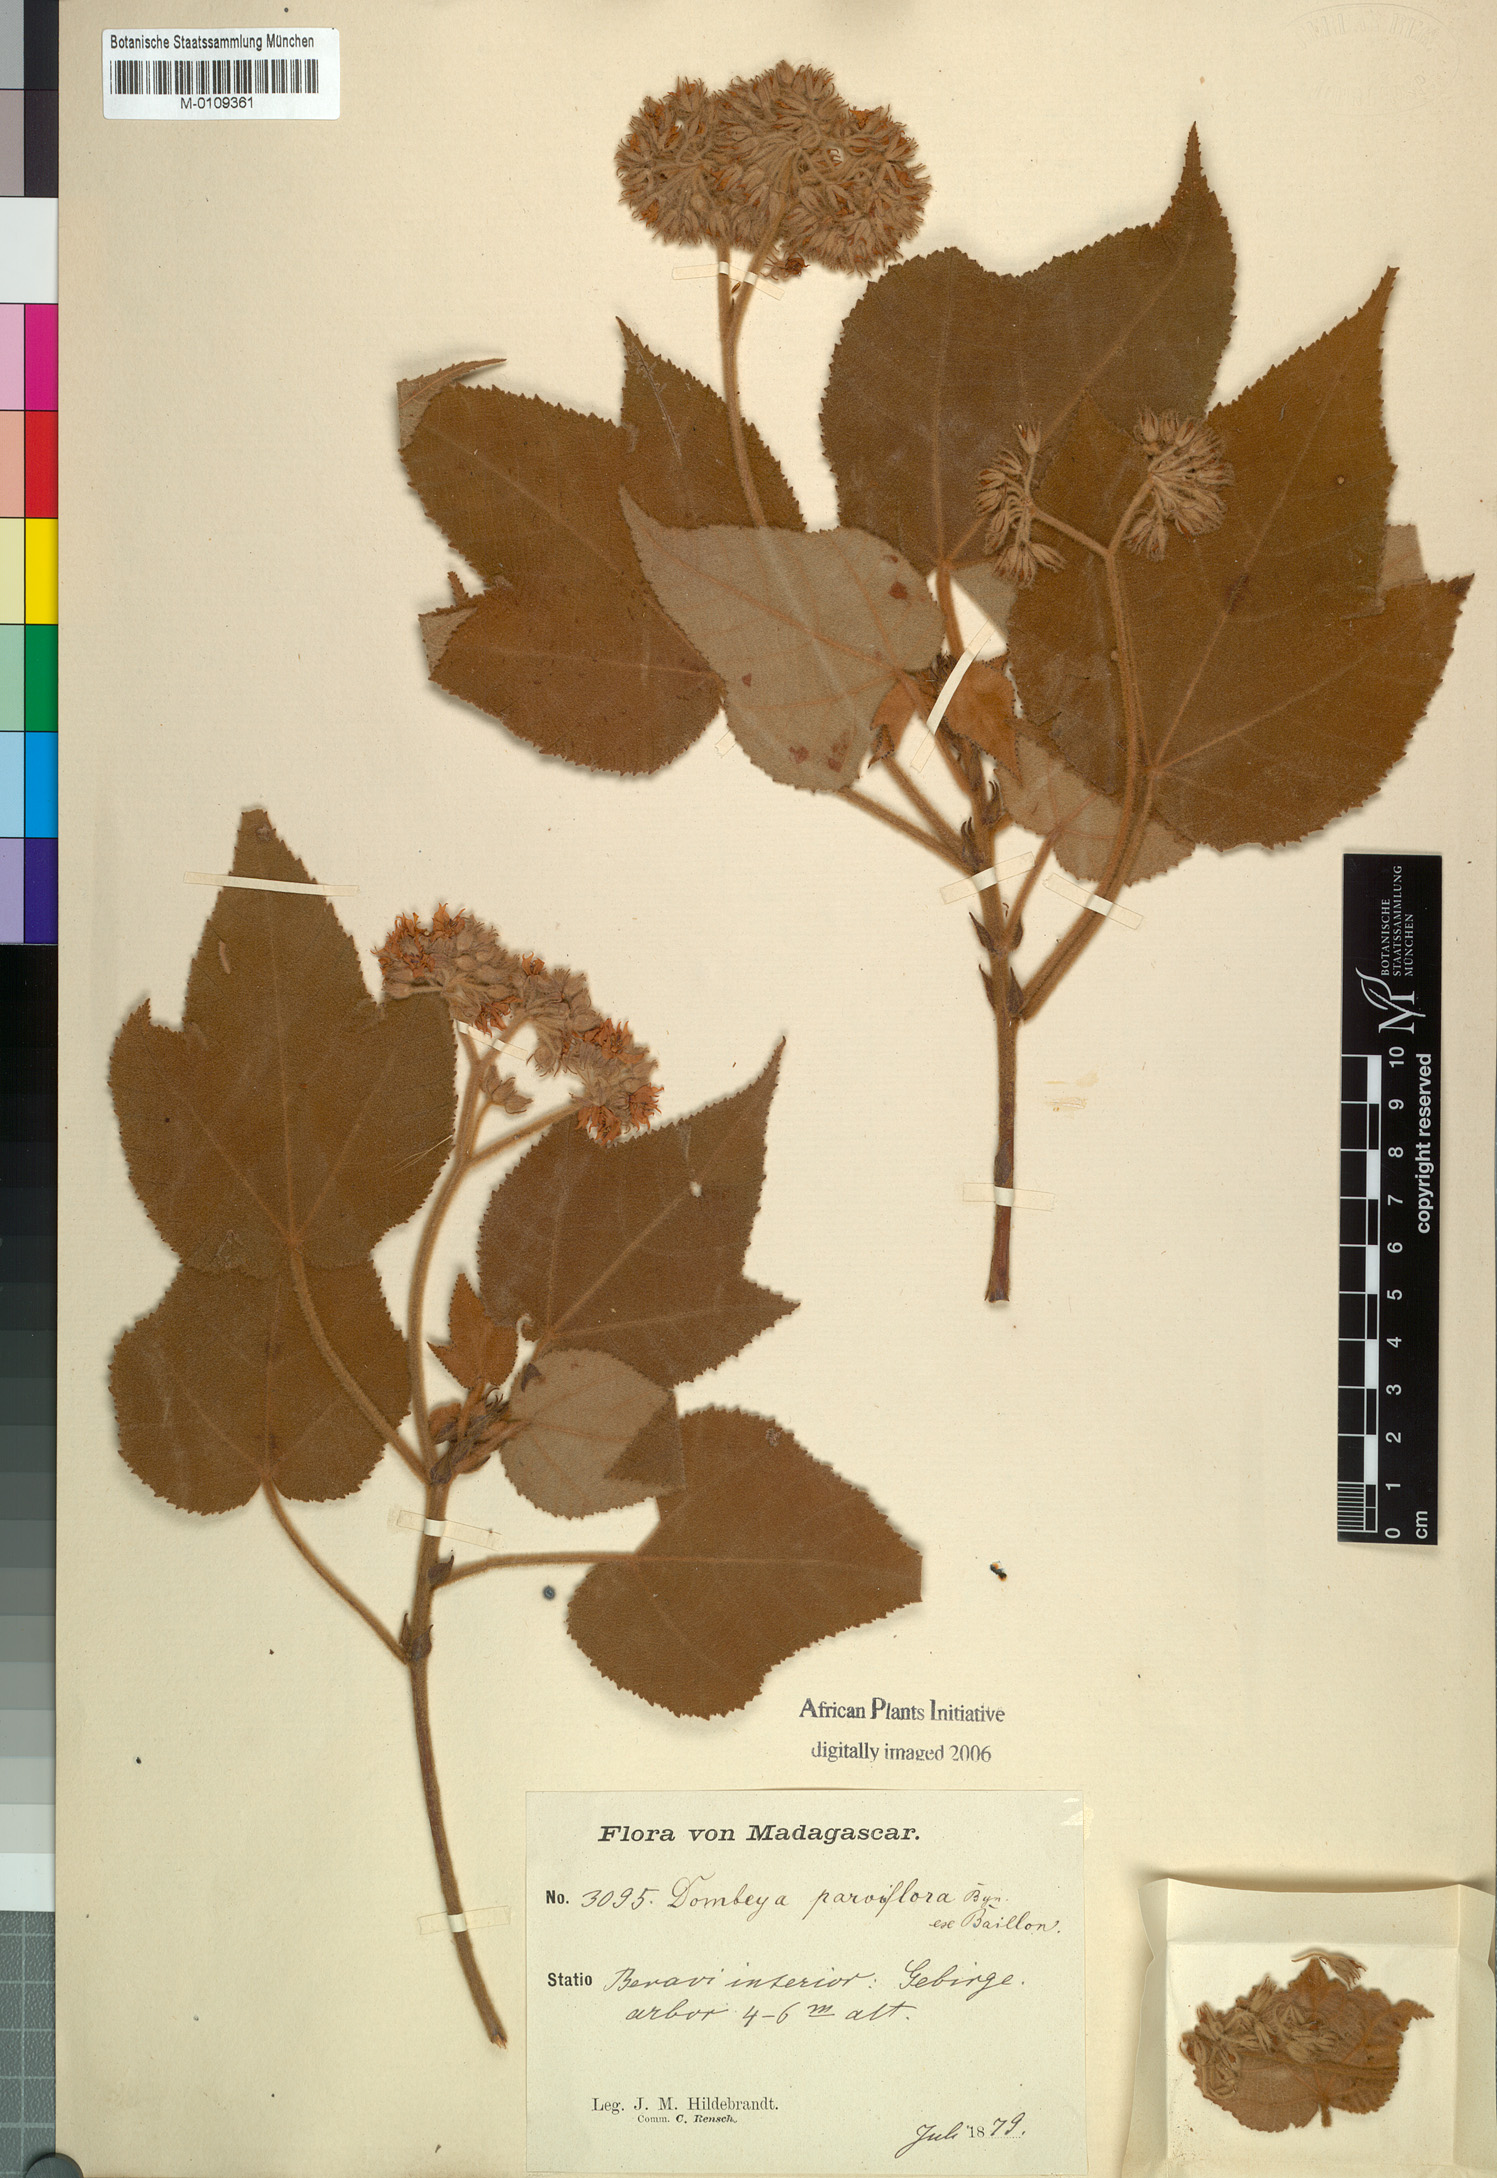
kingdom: Plantae
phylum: Tracheophyta
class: Magnoliopsida
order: Malvales
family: Malvaceae
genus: Dombeya
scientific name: Dombeya mollis
